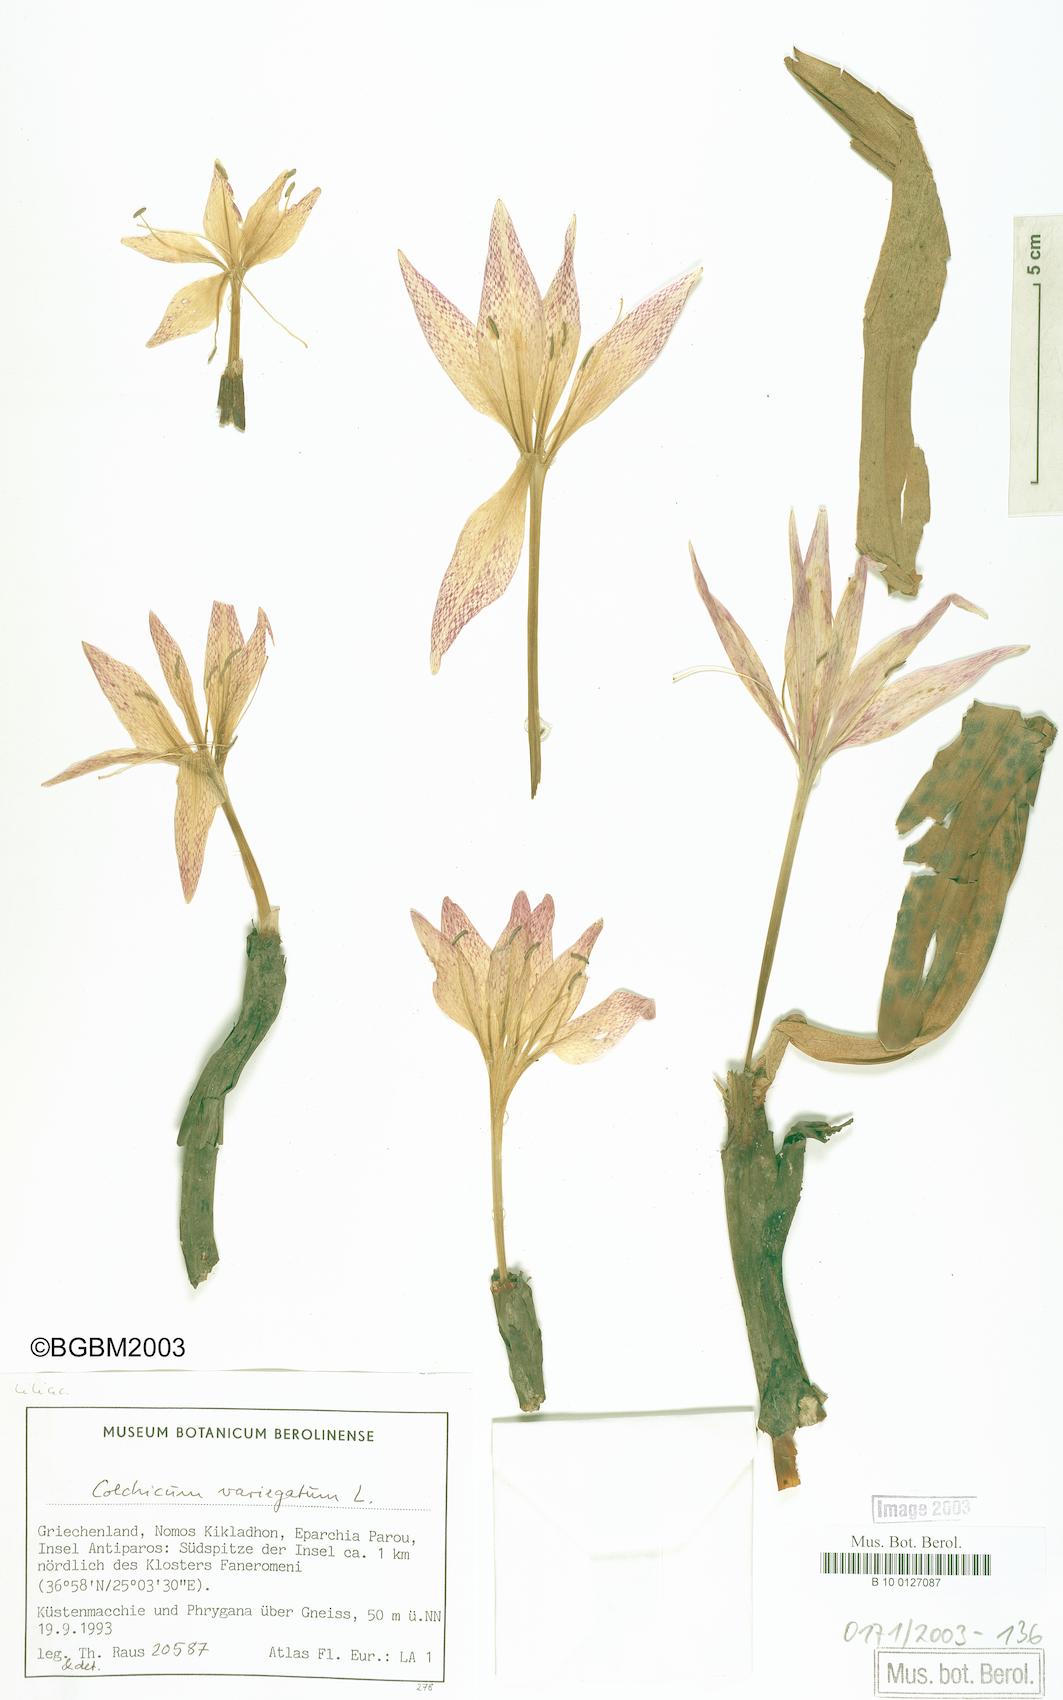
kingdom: Plantae
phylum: Tracheophyta
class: Liliopsida
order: Liliales
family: Colchicaceae
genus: Colchicum
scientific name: Colchicum variegatum
